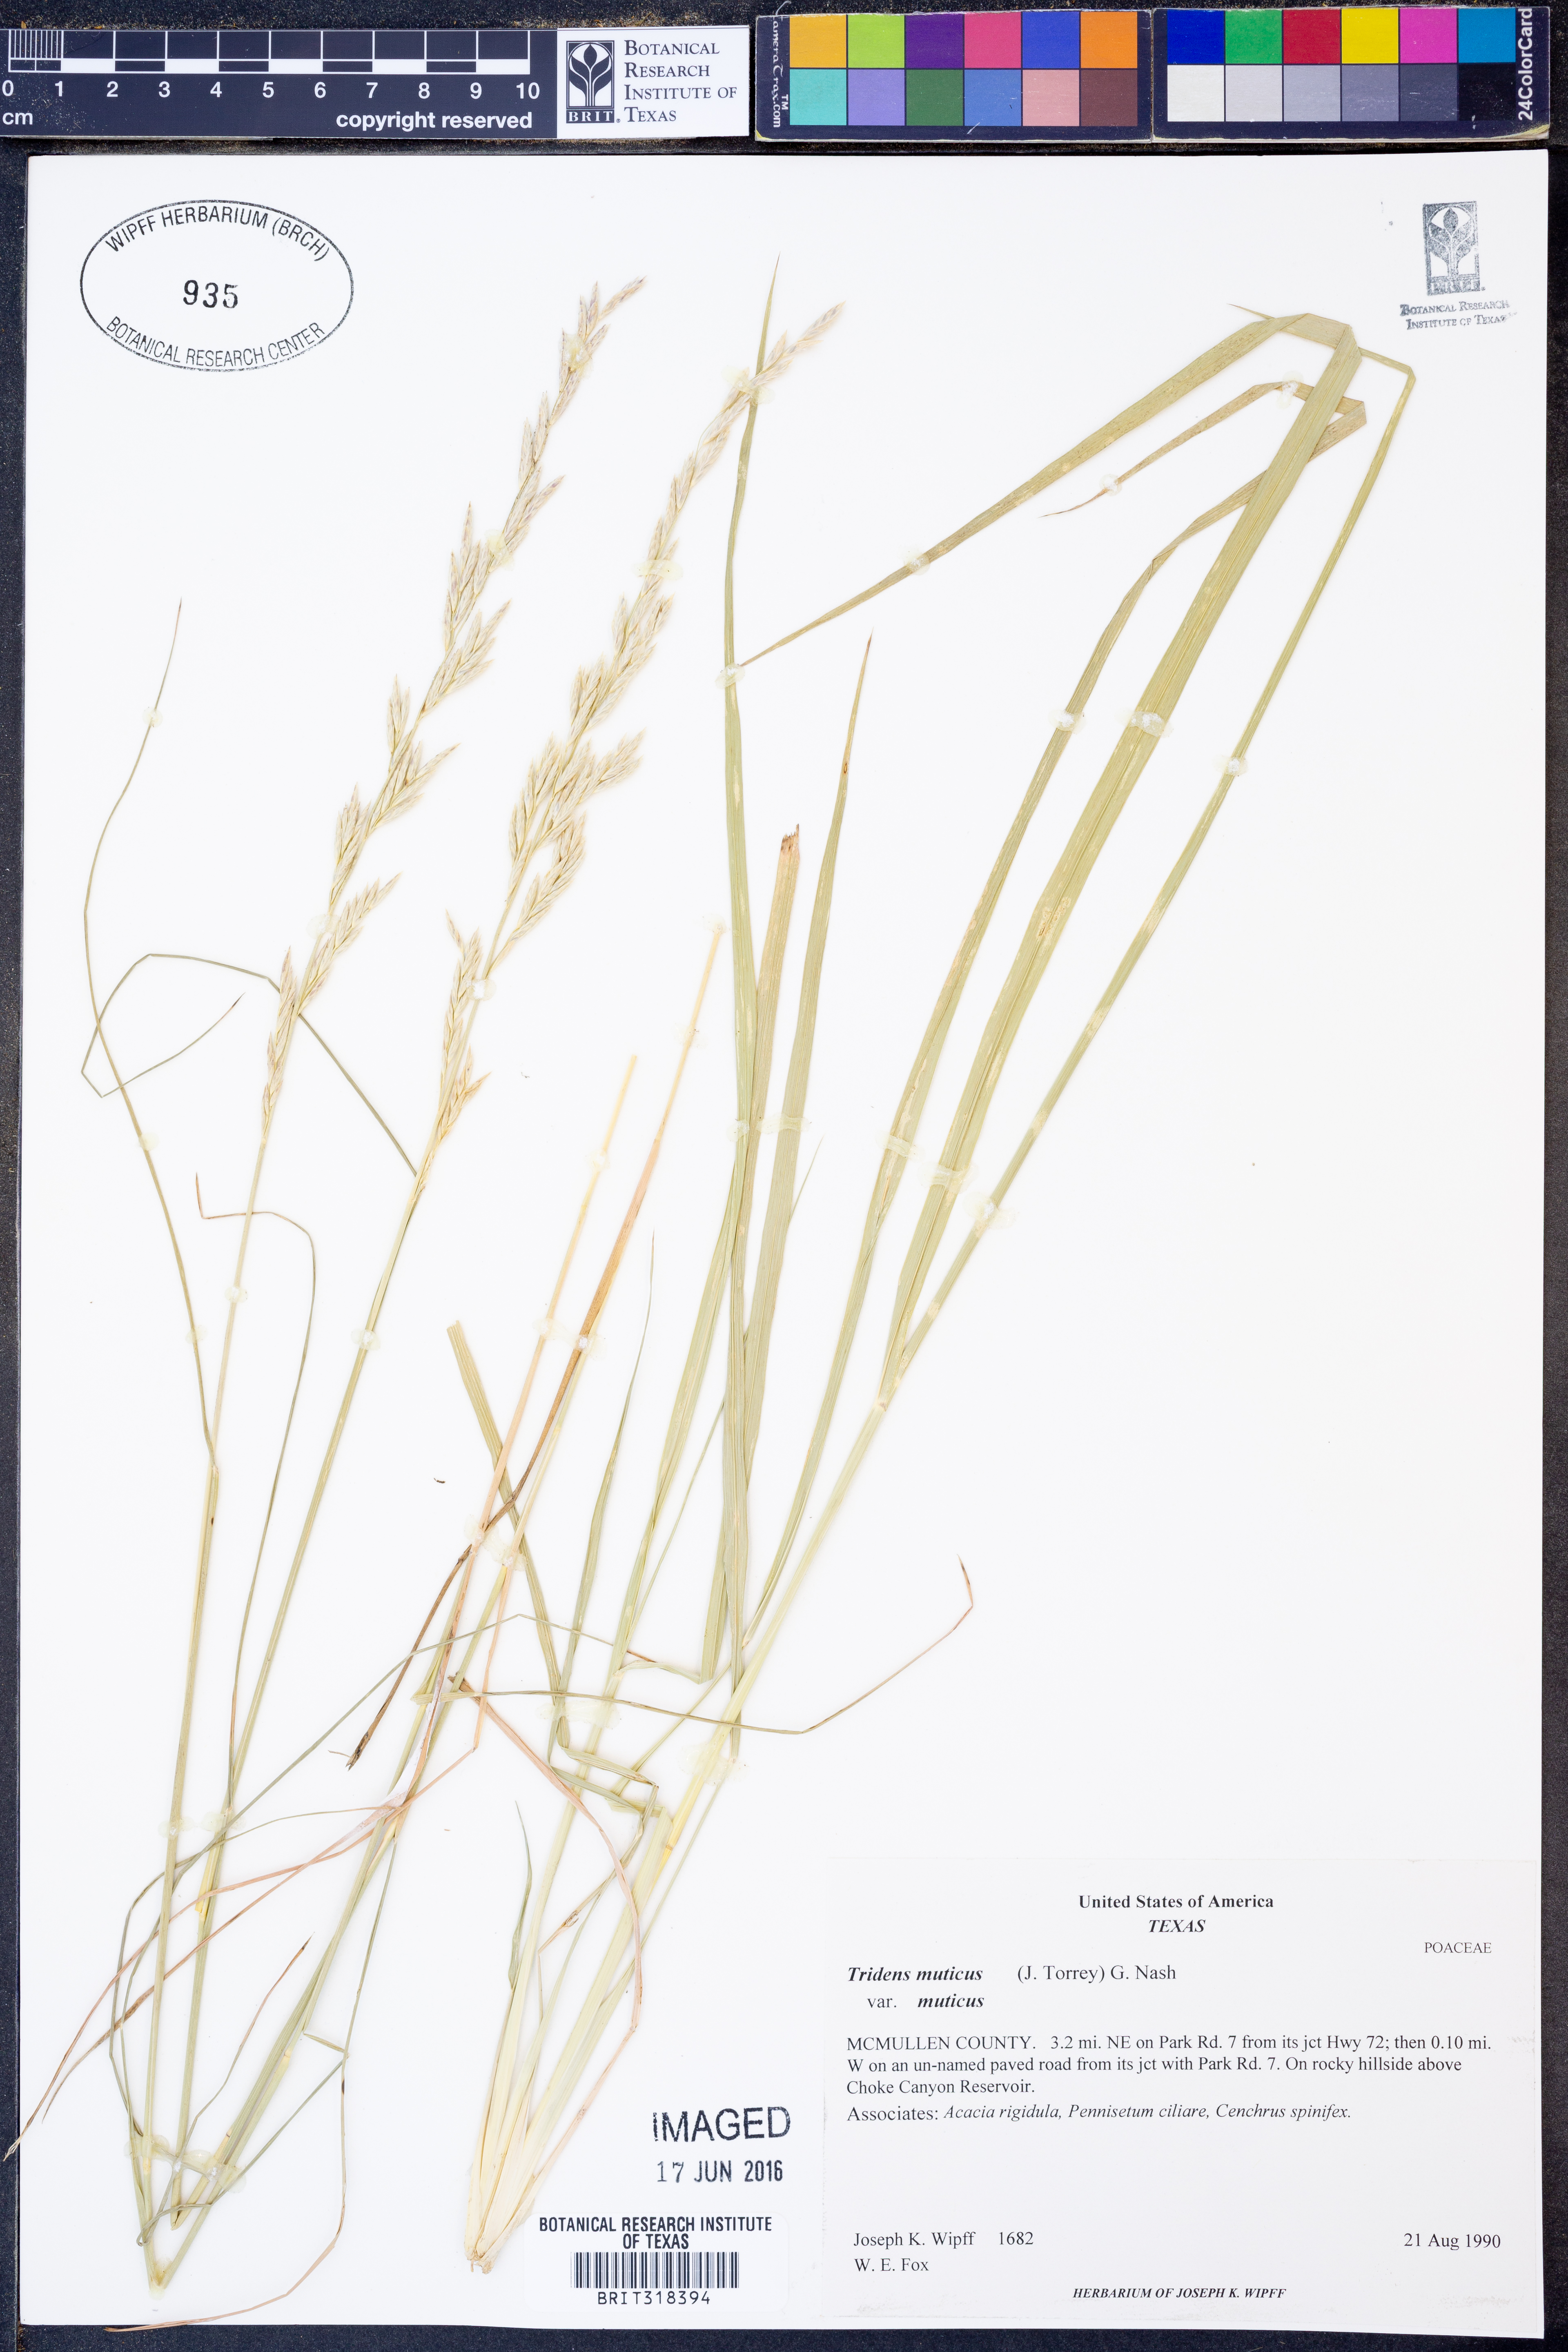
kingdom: Plantae
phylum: Tracheophyta
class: Liliopsida
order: Poales
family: Poaceae
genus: Tridentopsis
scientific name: Tridentopsis mutica
